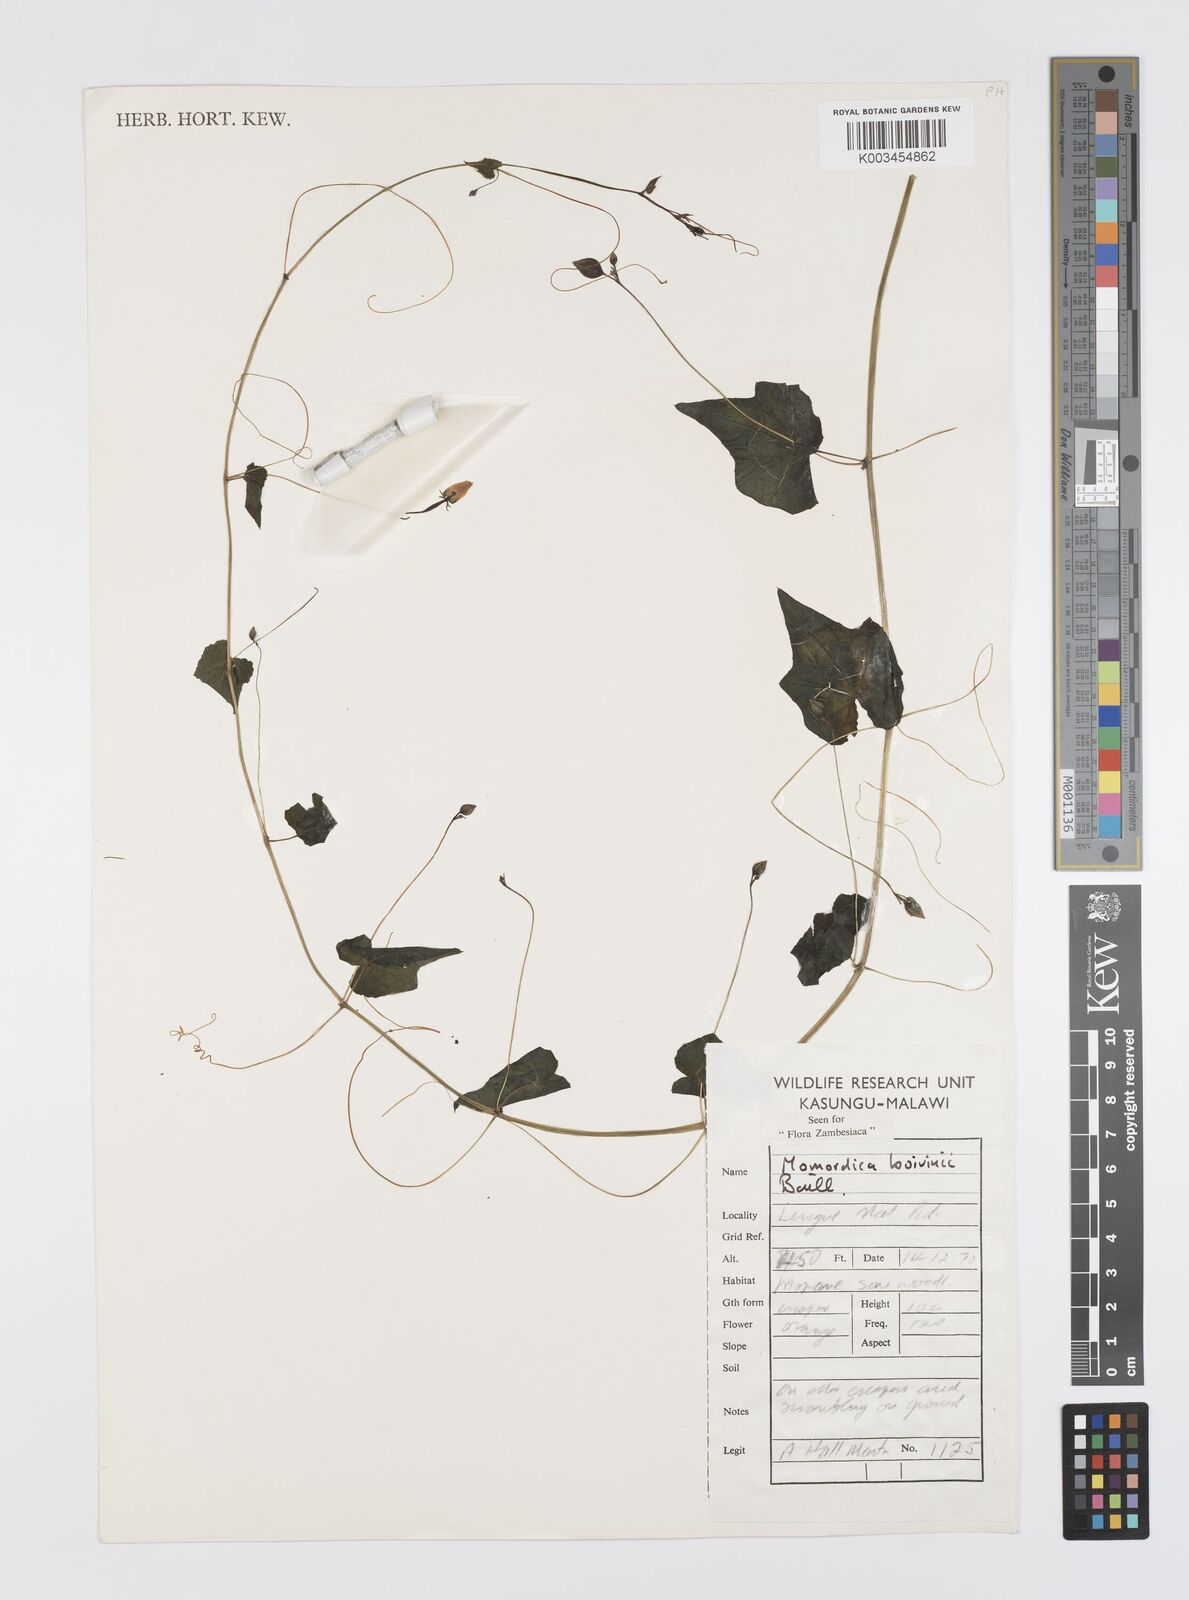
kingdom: Plantae
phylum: Tracheophyta
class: Magnoliopsida
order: Cucurbitales
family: Cucurbitaceae
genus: Momordica
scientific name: Momordica boivinii
